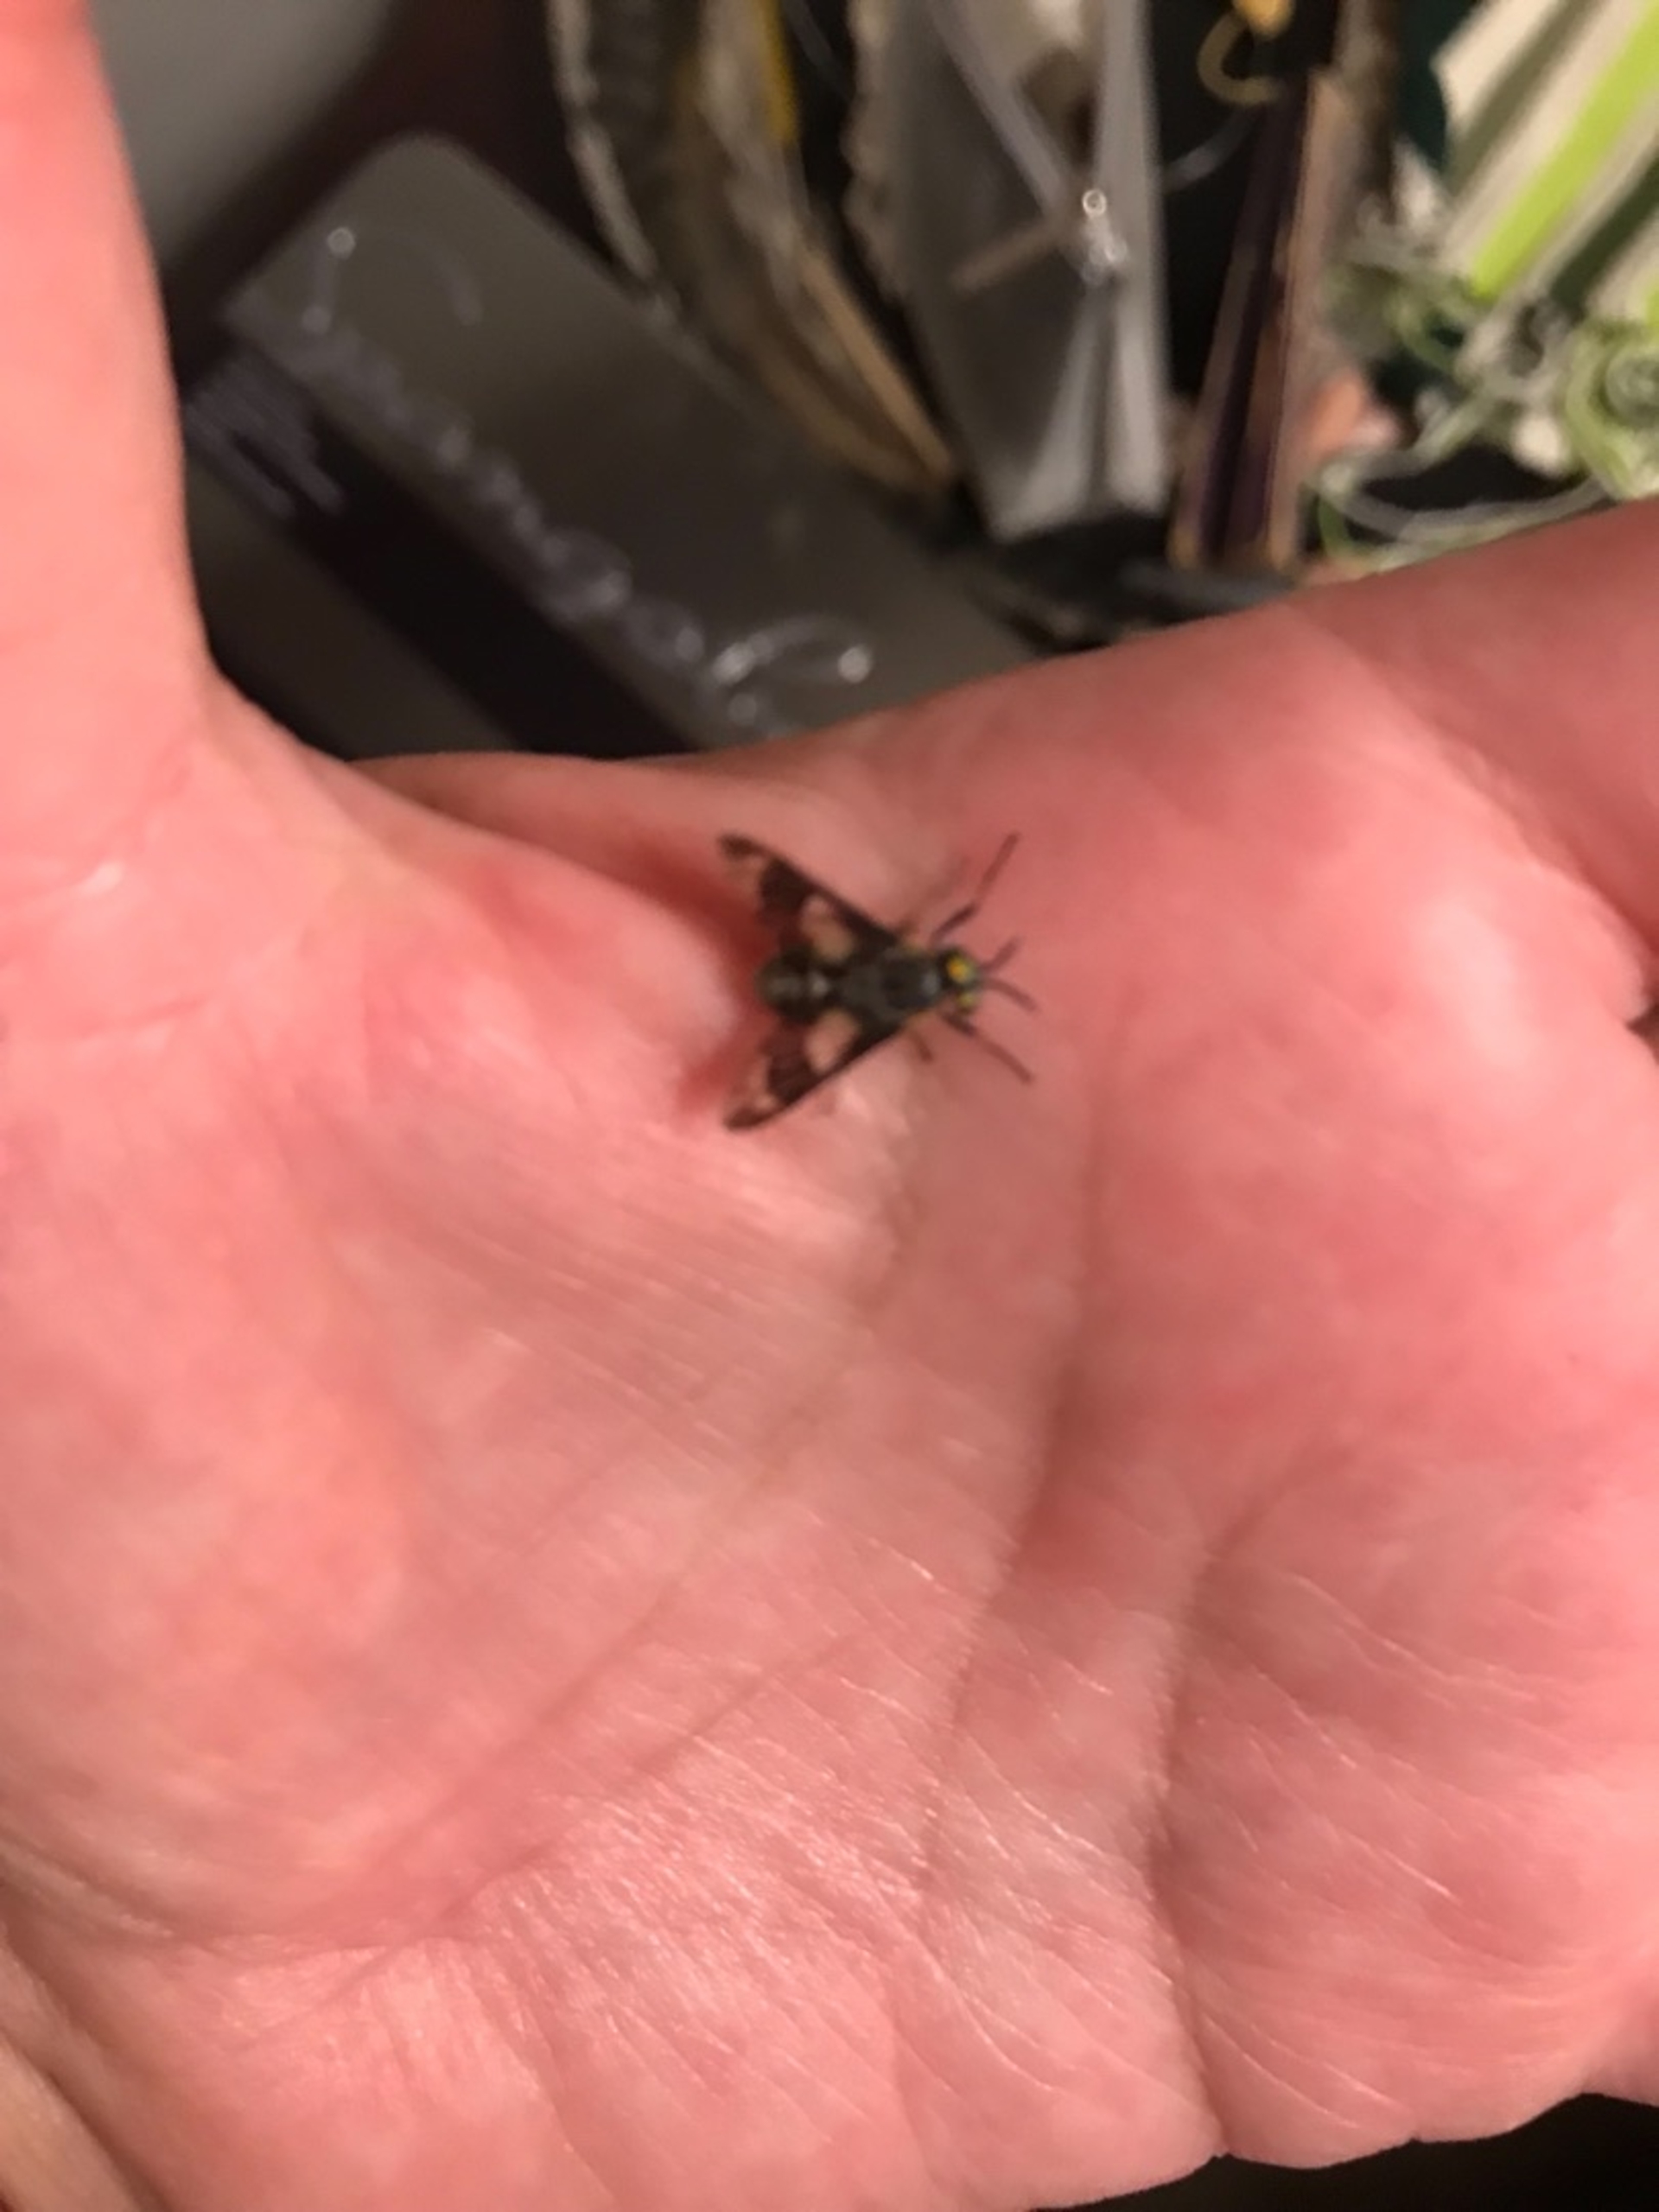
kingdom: Animalia
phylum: Arthropoda
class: Insecta
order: Diptera
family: Tabanidae
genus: Chrysops
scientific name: Chrysops relictus
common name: Guldklæg
